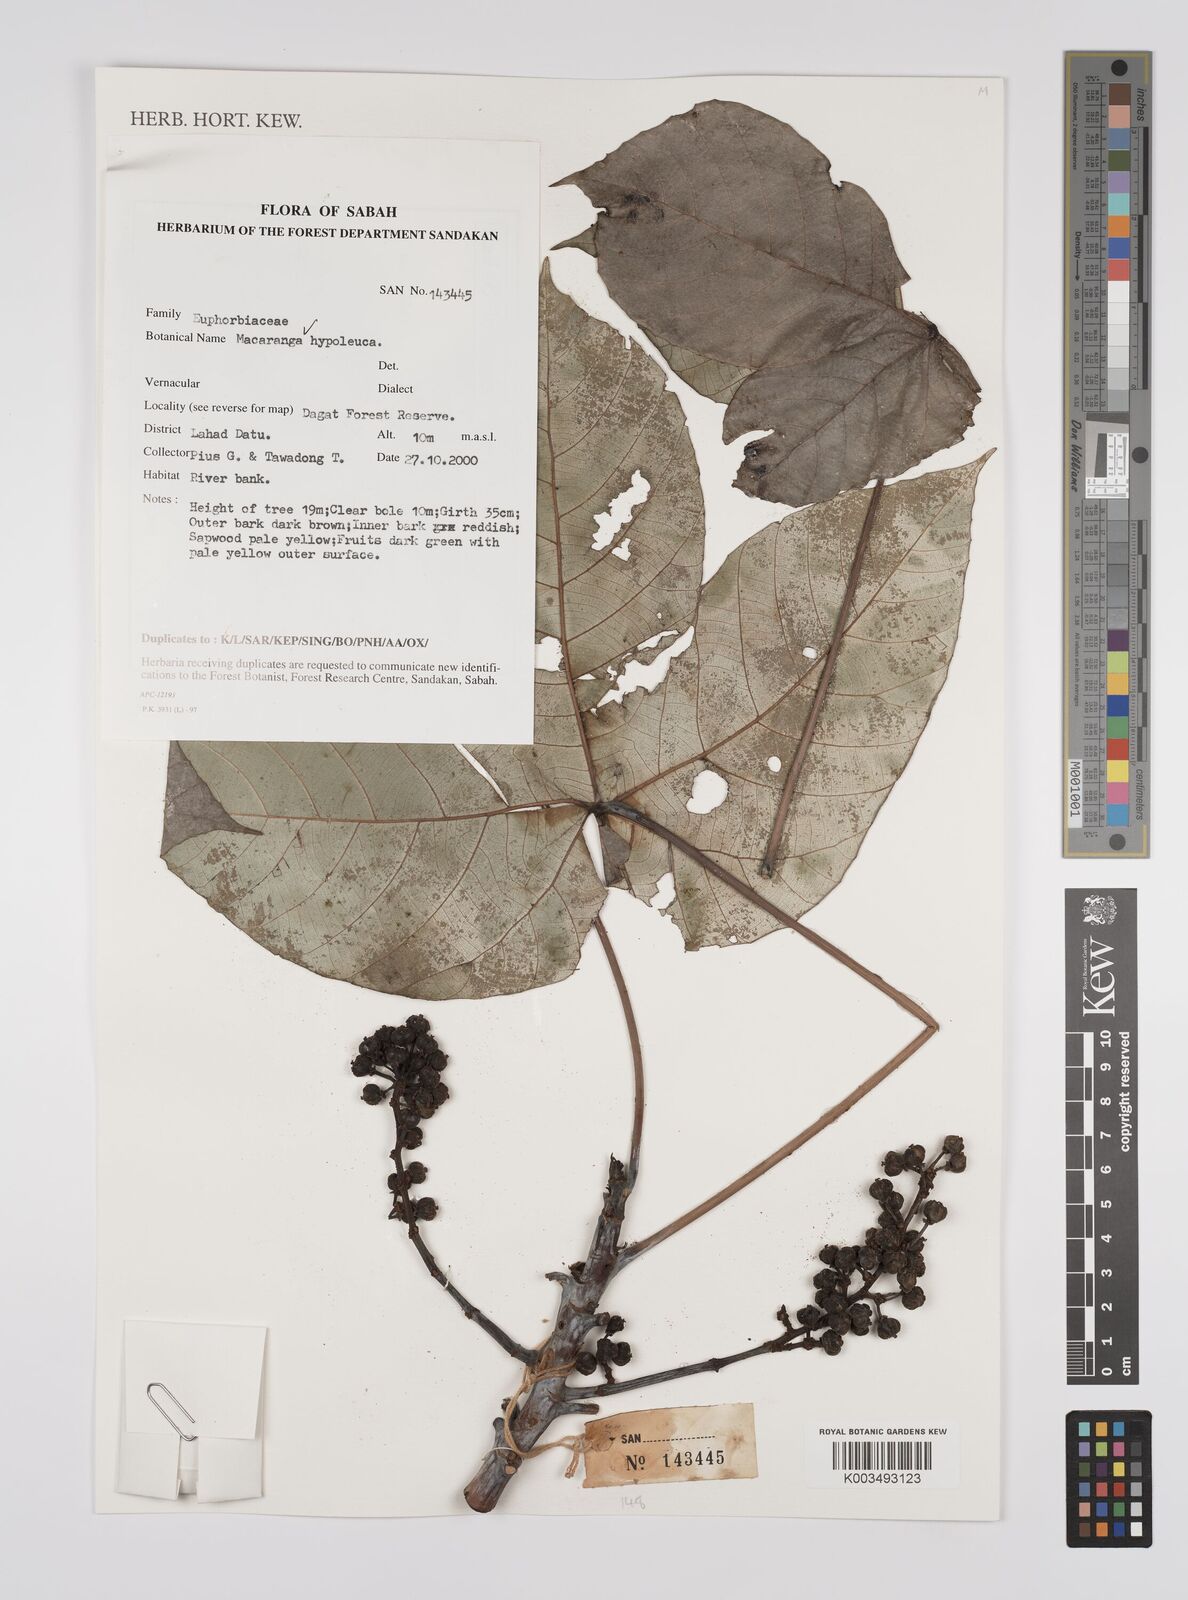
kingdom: Plantae
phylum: Tracheophyta
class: Magnoliopsida
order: Malpighiales
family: Euphorbiaceae
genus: Macaranga
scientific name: Macaranga hypoleuca
